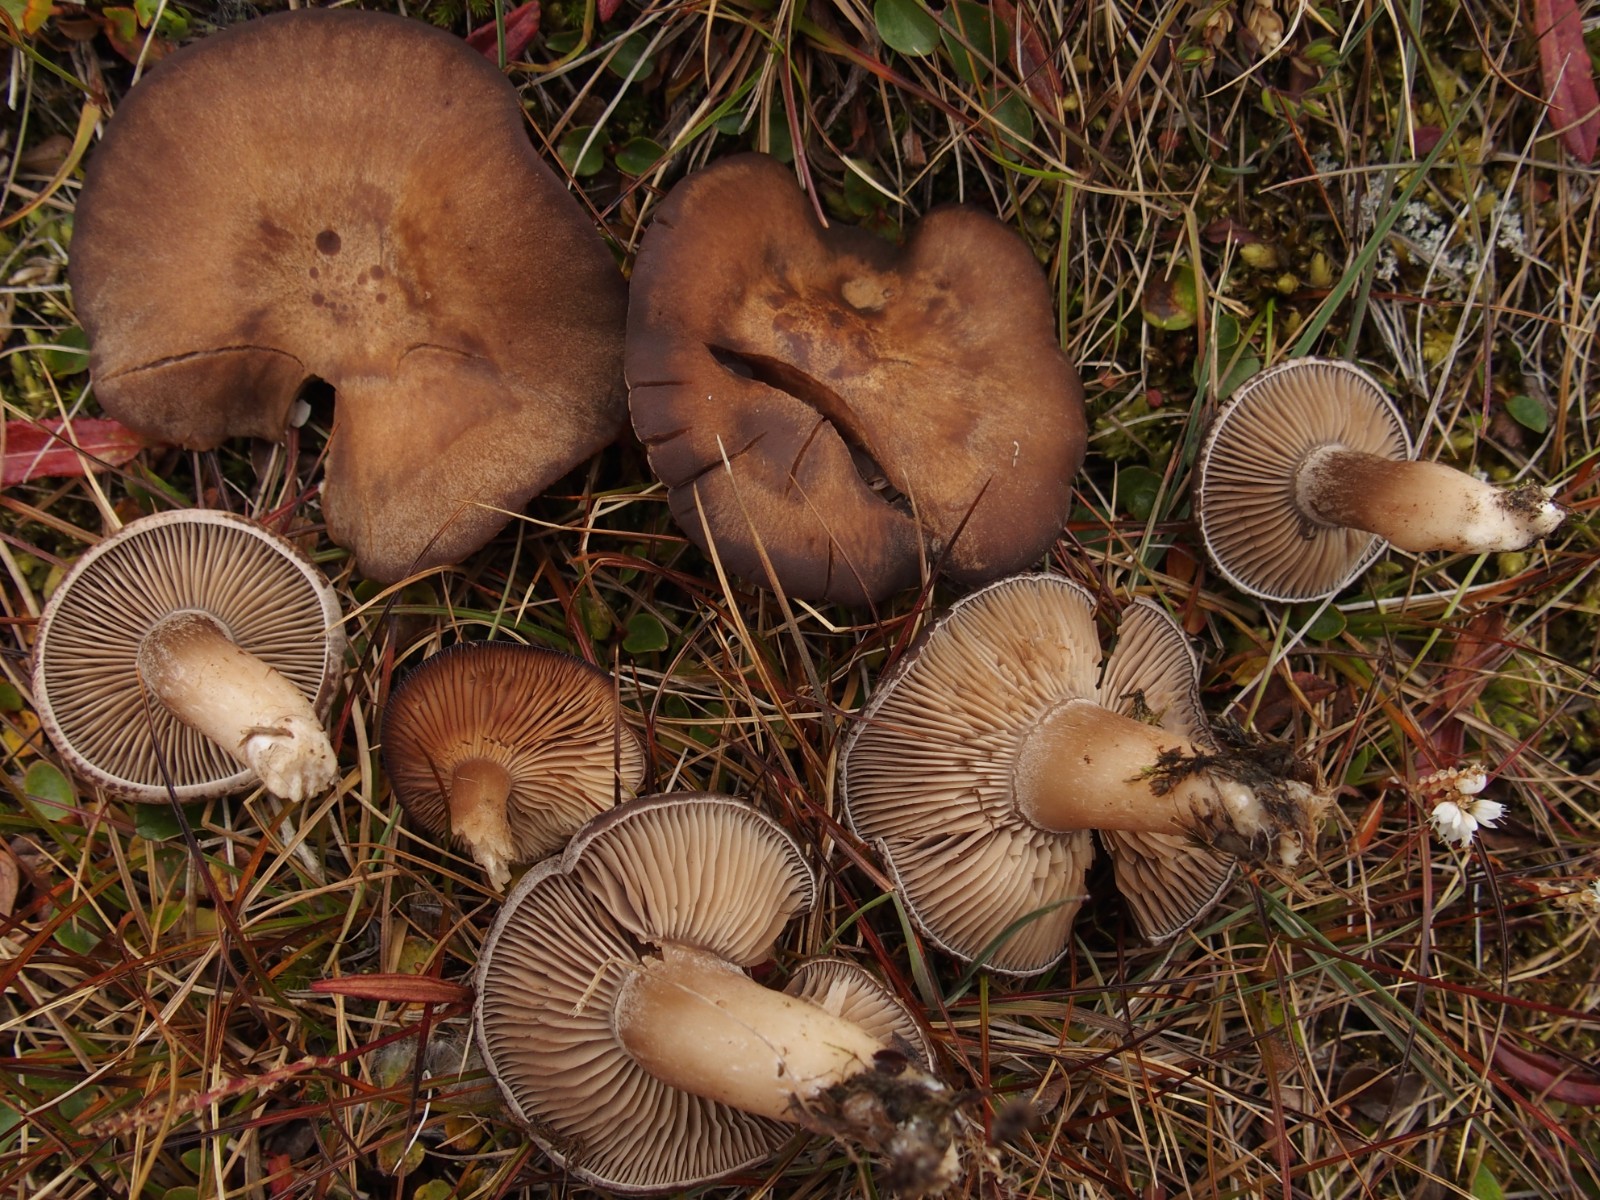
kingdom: Fungi
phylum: Basidiomycota
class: Agaricomycetes
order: Agaricales
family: Tricholomataceae
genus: Lepista
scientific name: Lepista multiformis
